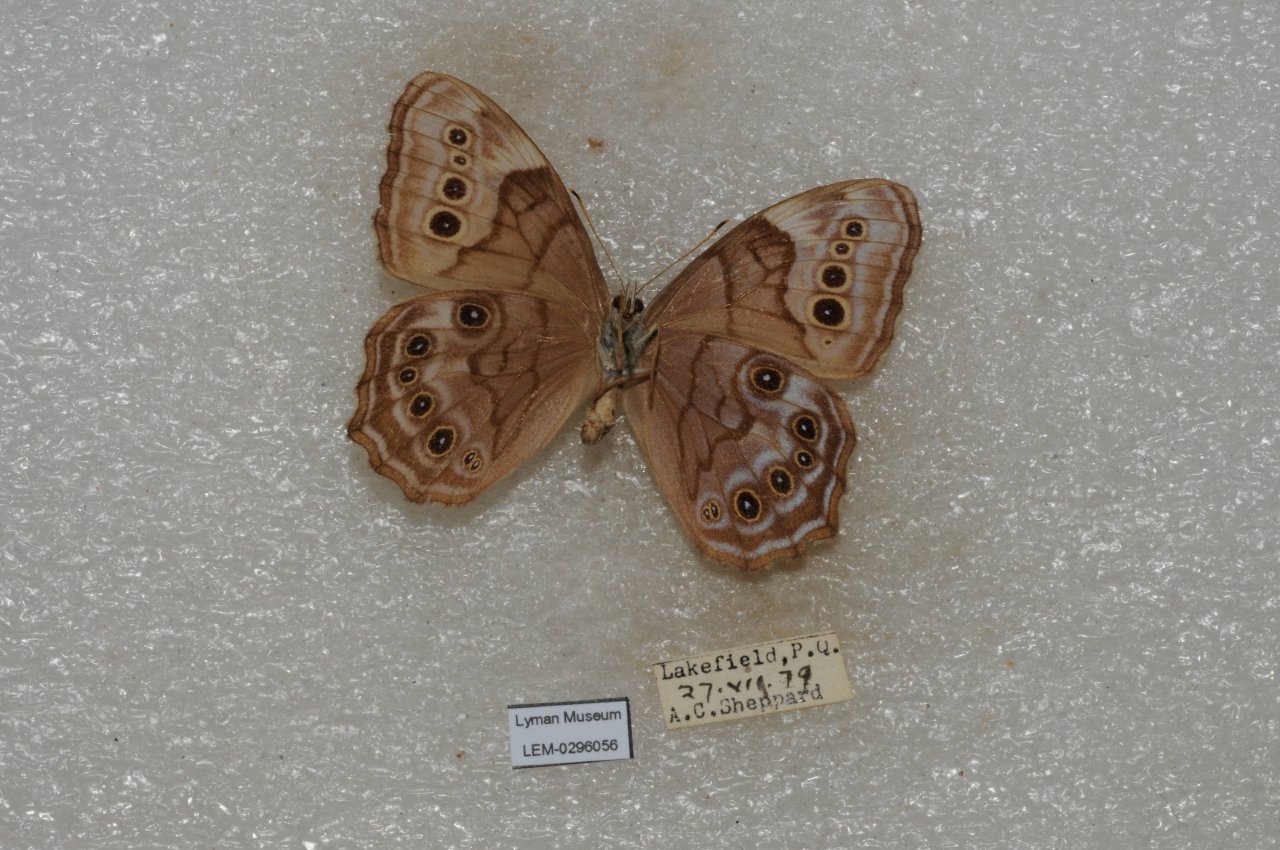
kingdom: Animalia
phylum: Arthropoda
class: Insecta
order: Lepidoptera
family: Nymphalidae
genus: Lethe
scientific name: Lethe anthedon
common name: Northern Pearly-Eye
